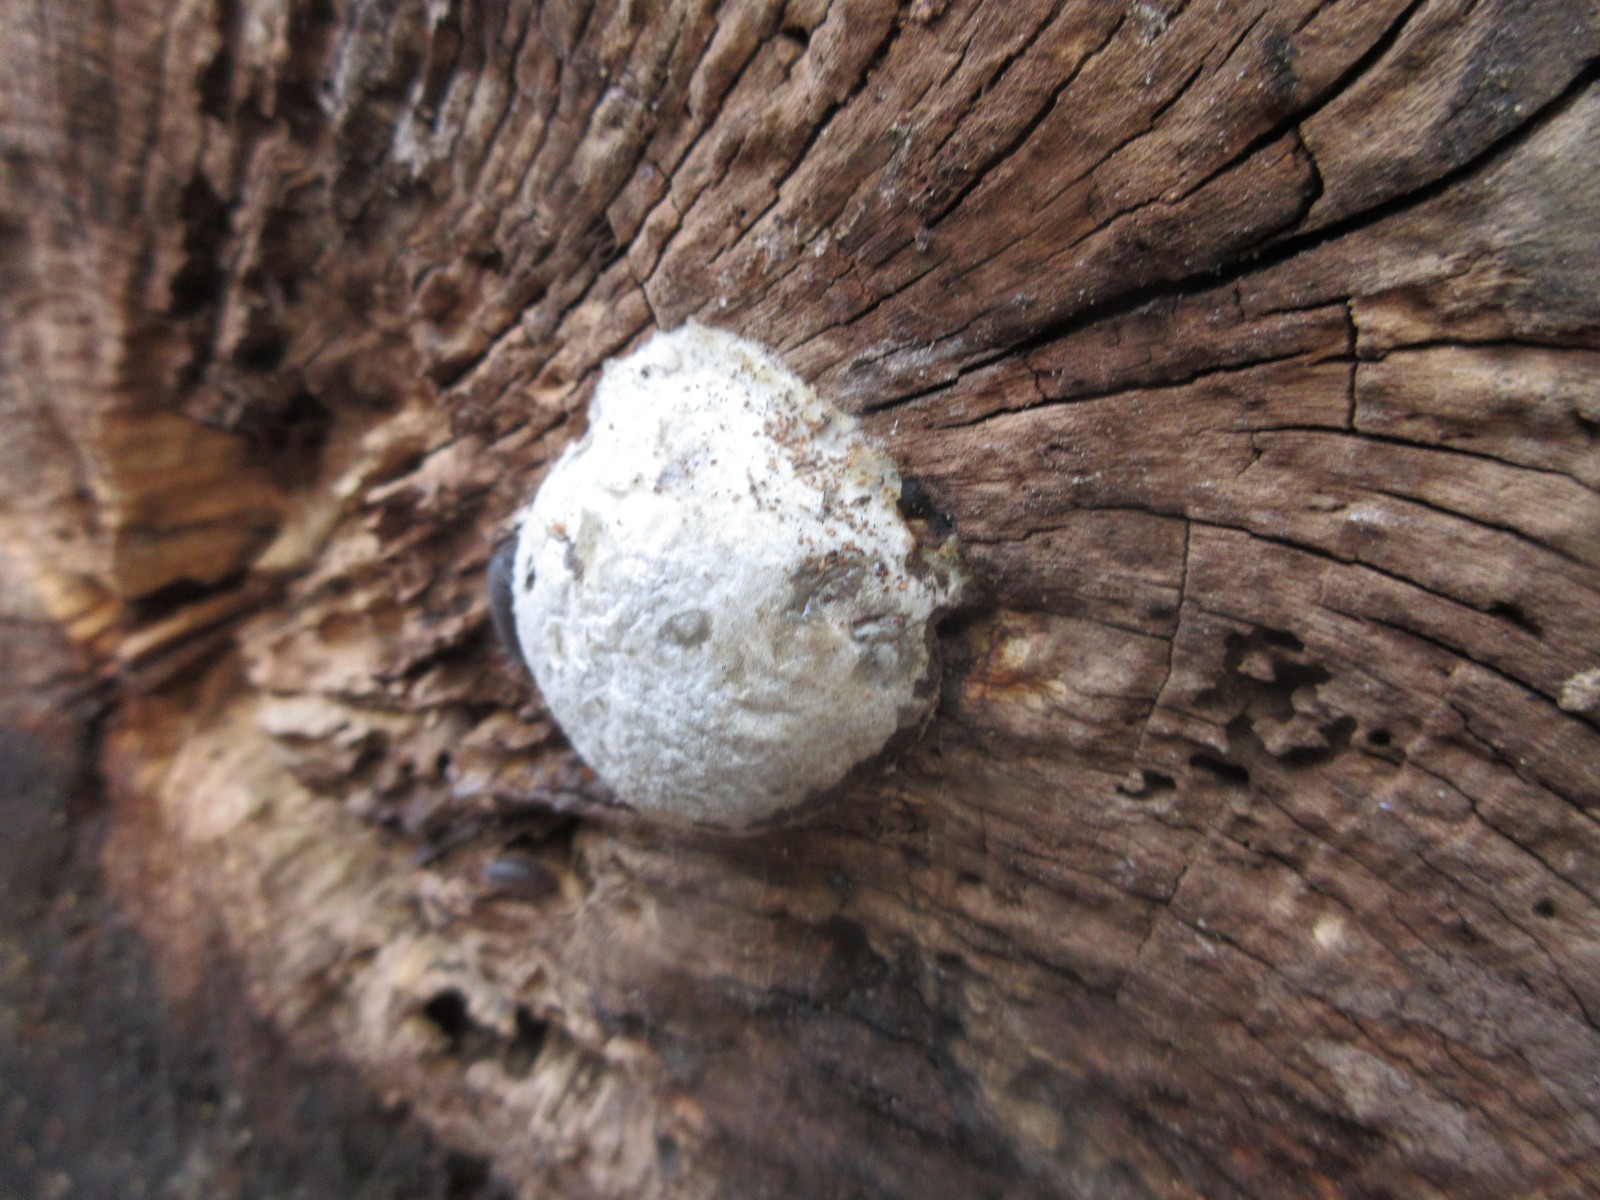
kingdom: Protozoa
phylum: Mycetozoa
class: Myxomycetes
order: Cribrariales
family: Tubiferaceae
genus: Reticularia
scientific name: Reticularia lycoperdon
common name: skinnende støvpude
